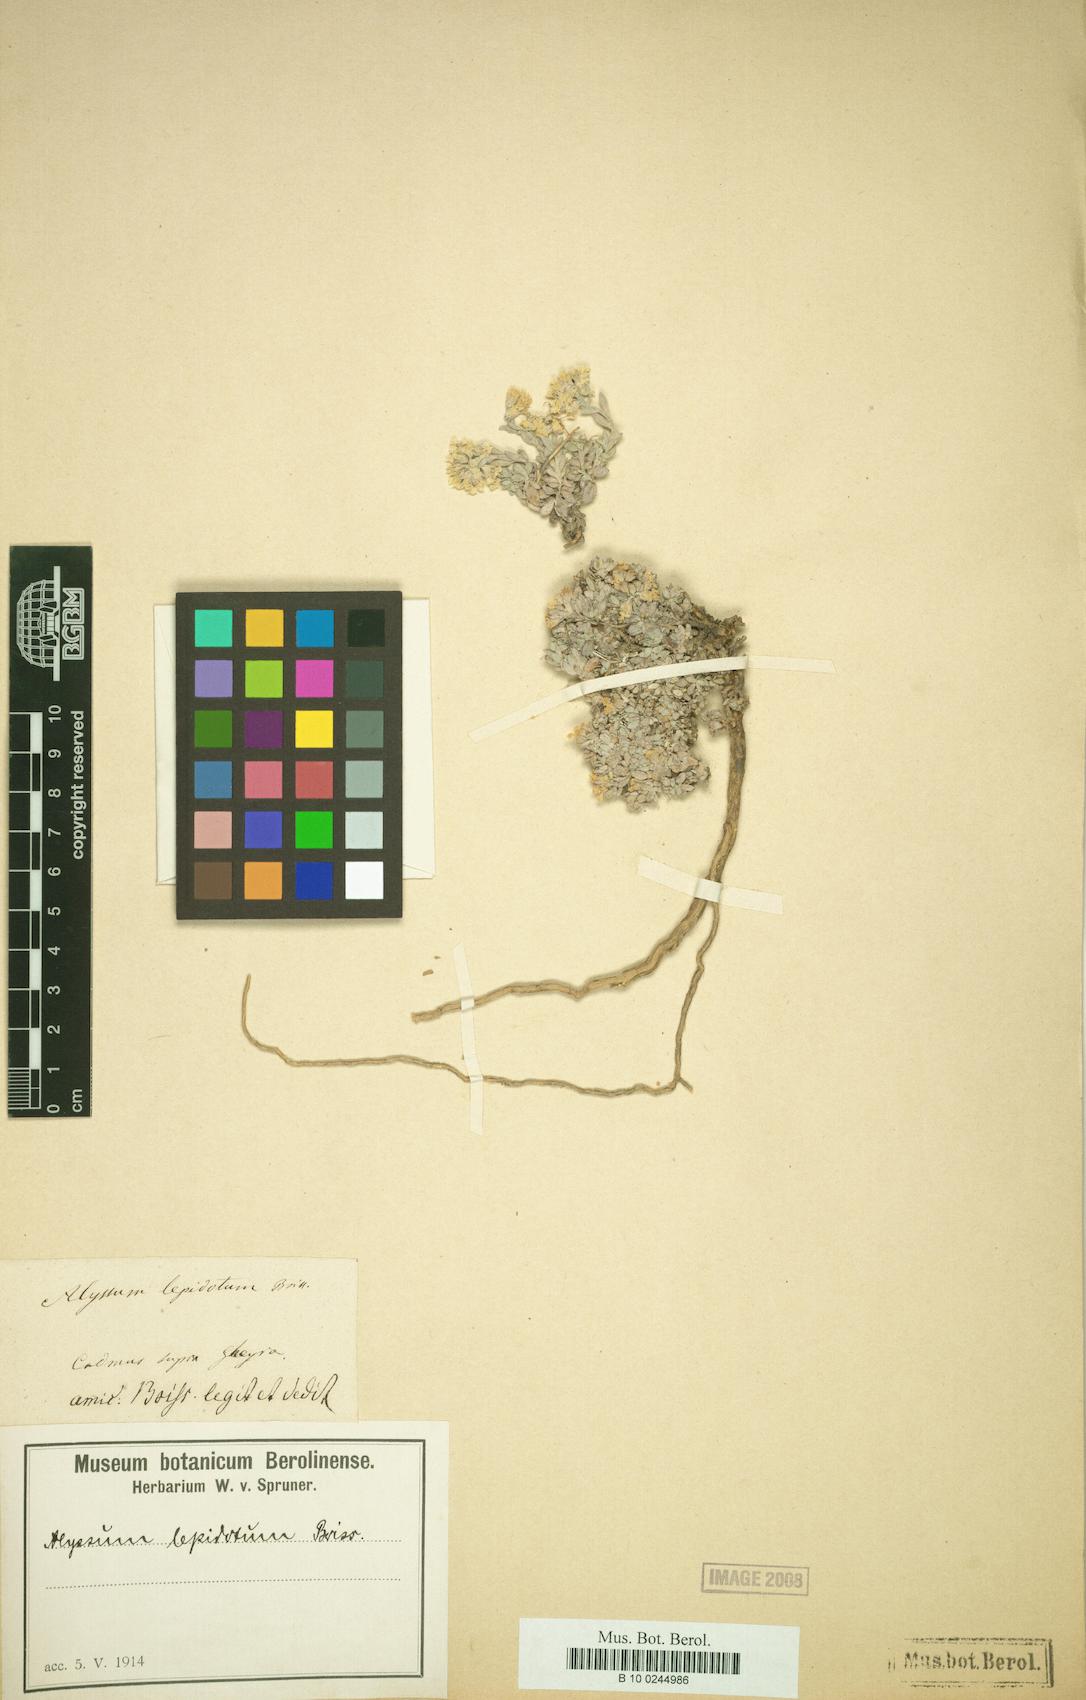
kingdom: Plantae
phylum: Tracheophyta
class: Magnoliopsida
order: Brassicales
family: Brassicaceae
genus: Alyssum
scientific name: Alyssum lepidotum
